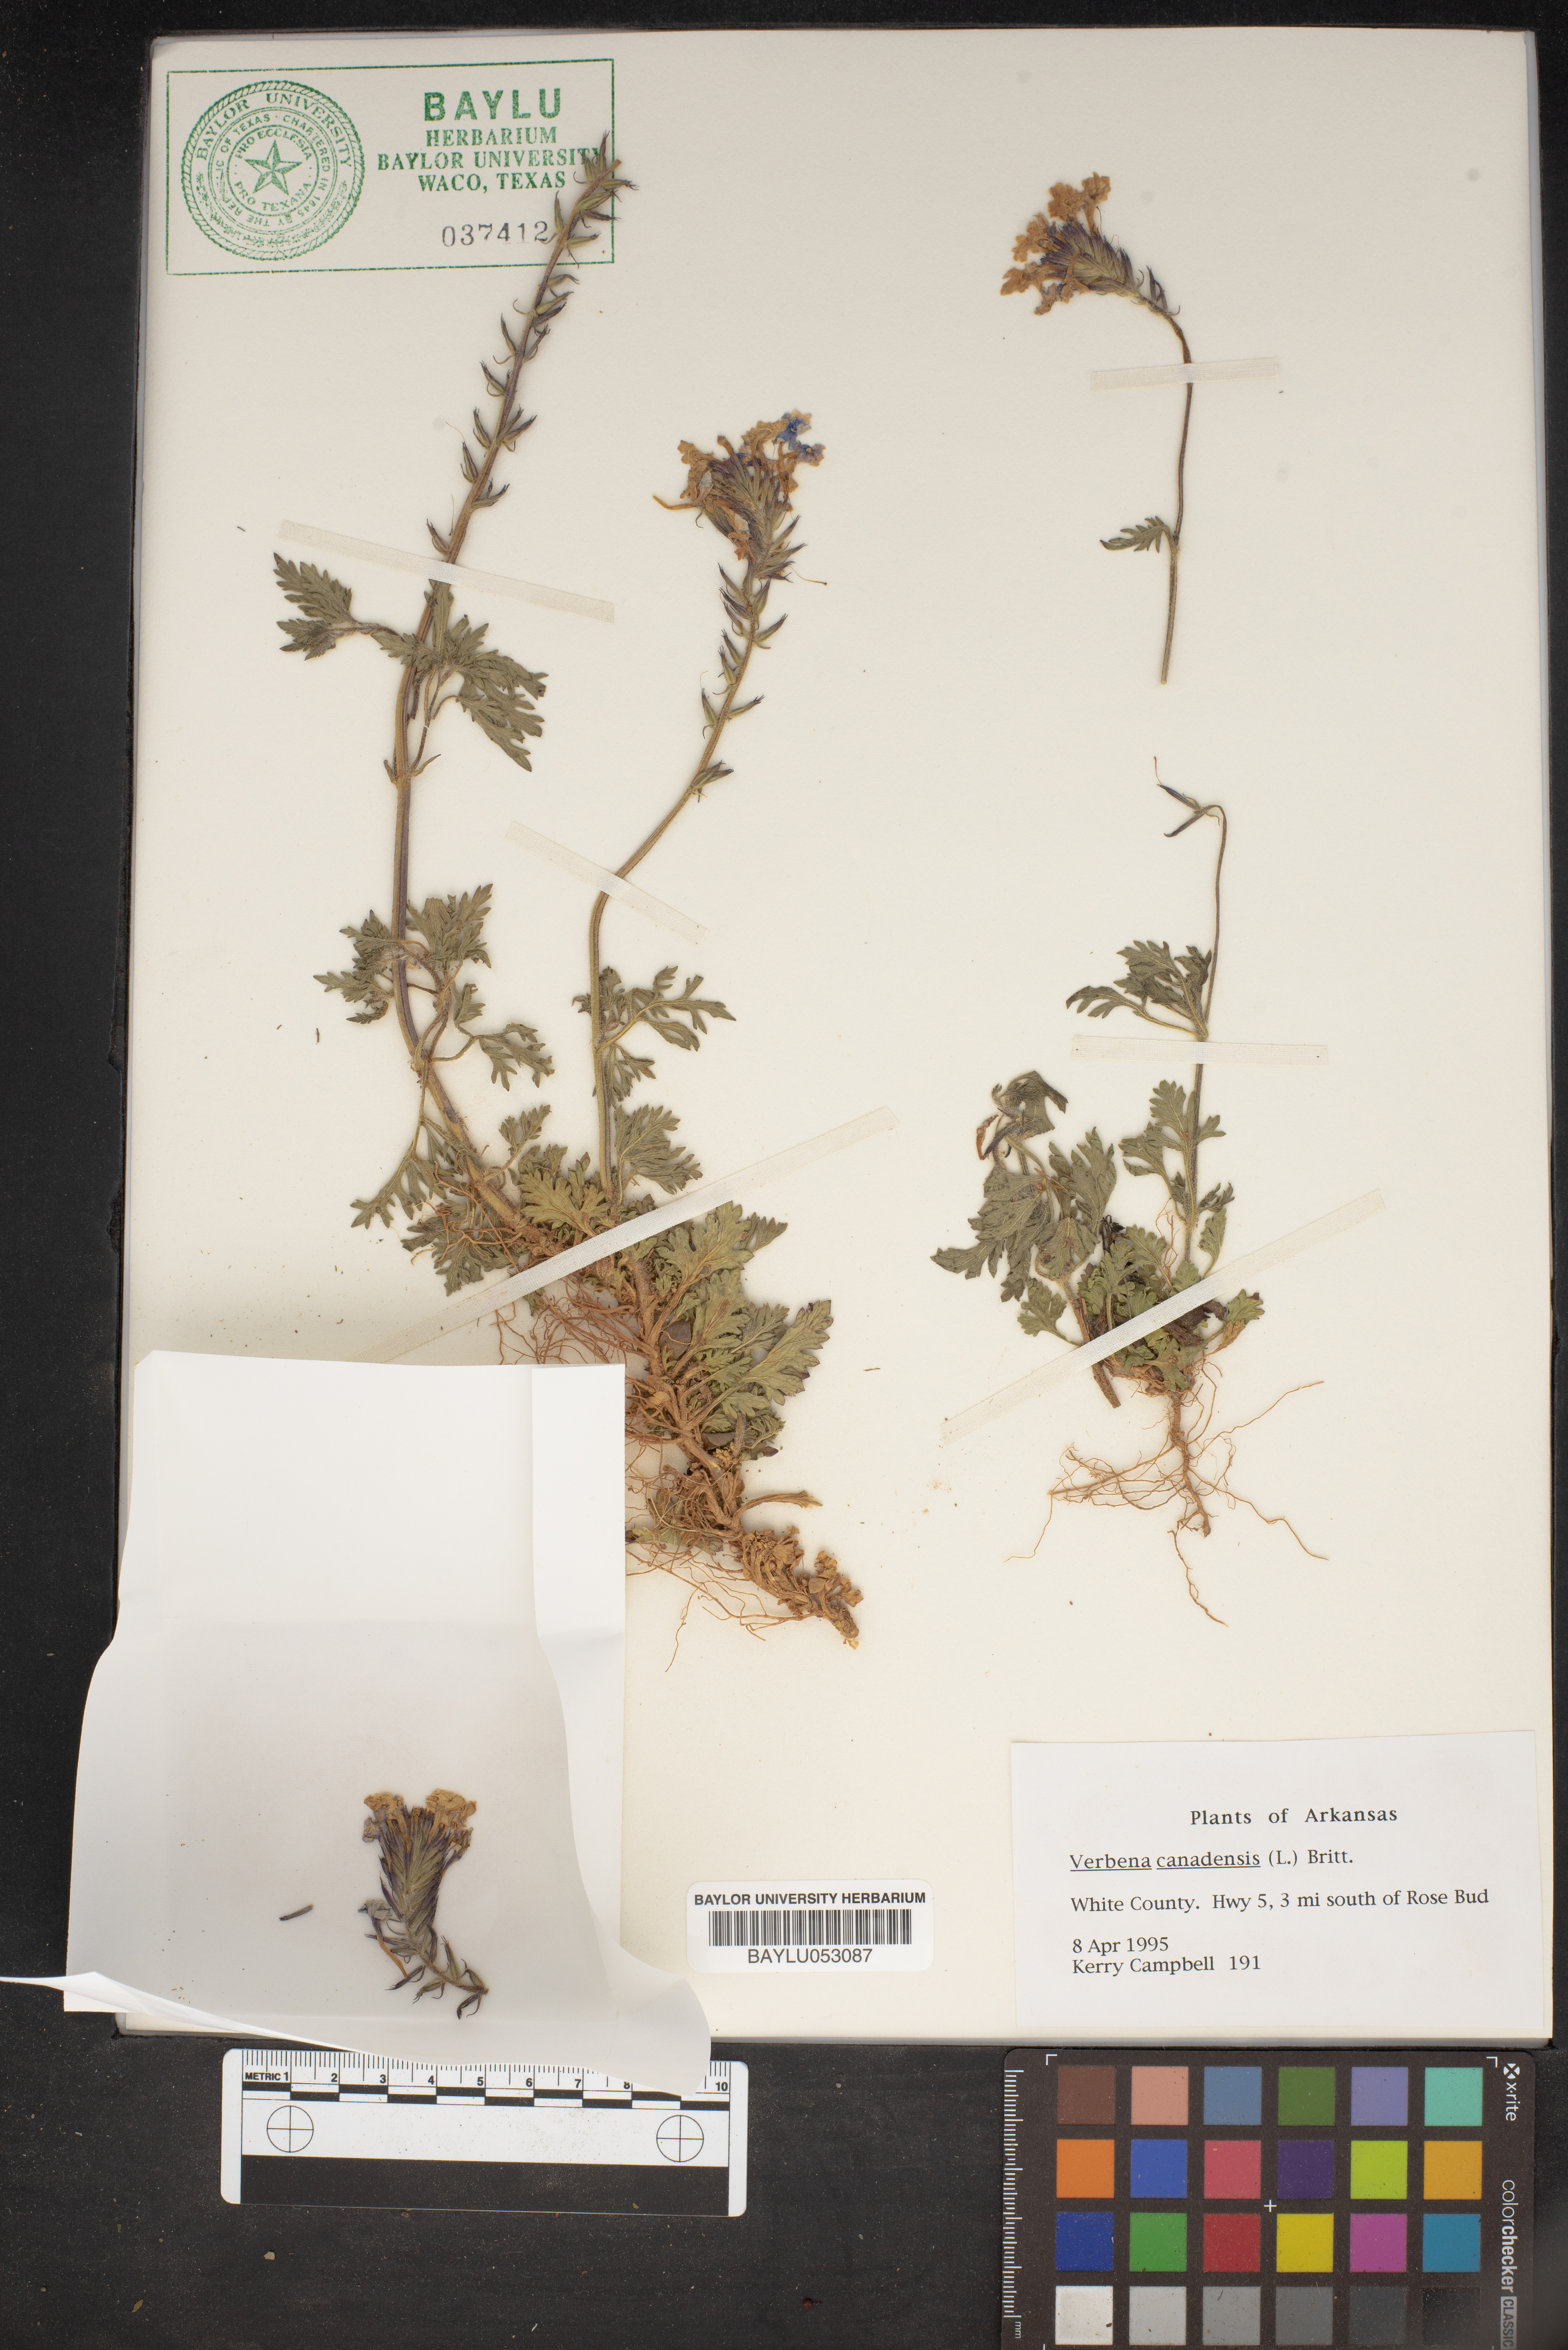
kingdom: Plantae
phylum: Tracheophyta
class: Magnoliopsida
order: Lamiales
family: Verbenaceae
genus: Verbena
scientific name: Verbena canadensis
